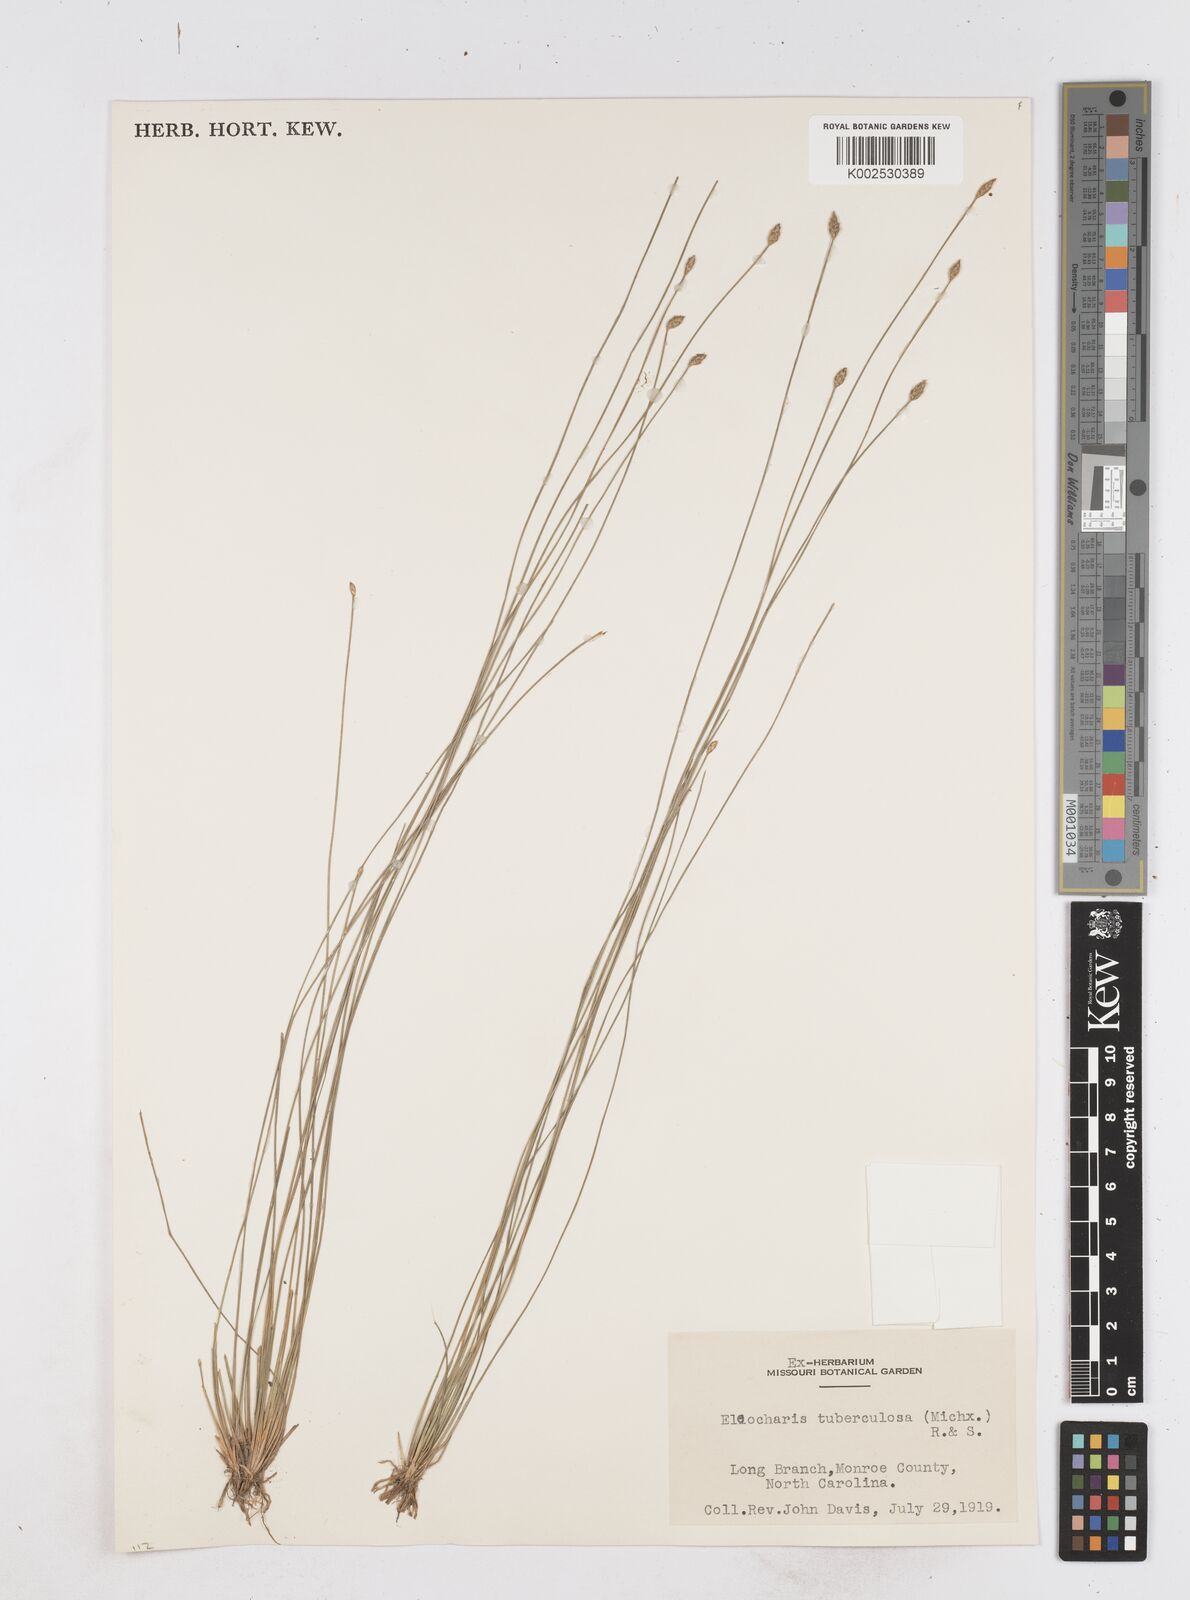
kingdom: Plantae
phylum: Tracheophyta
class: Liliopsida
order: Poales
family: Cyperaceae
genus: Eleocharis
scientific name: Eleocharis tuberculosa
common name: Cone-cup spikerush
